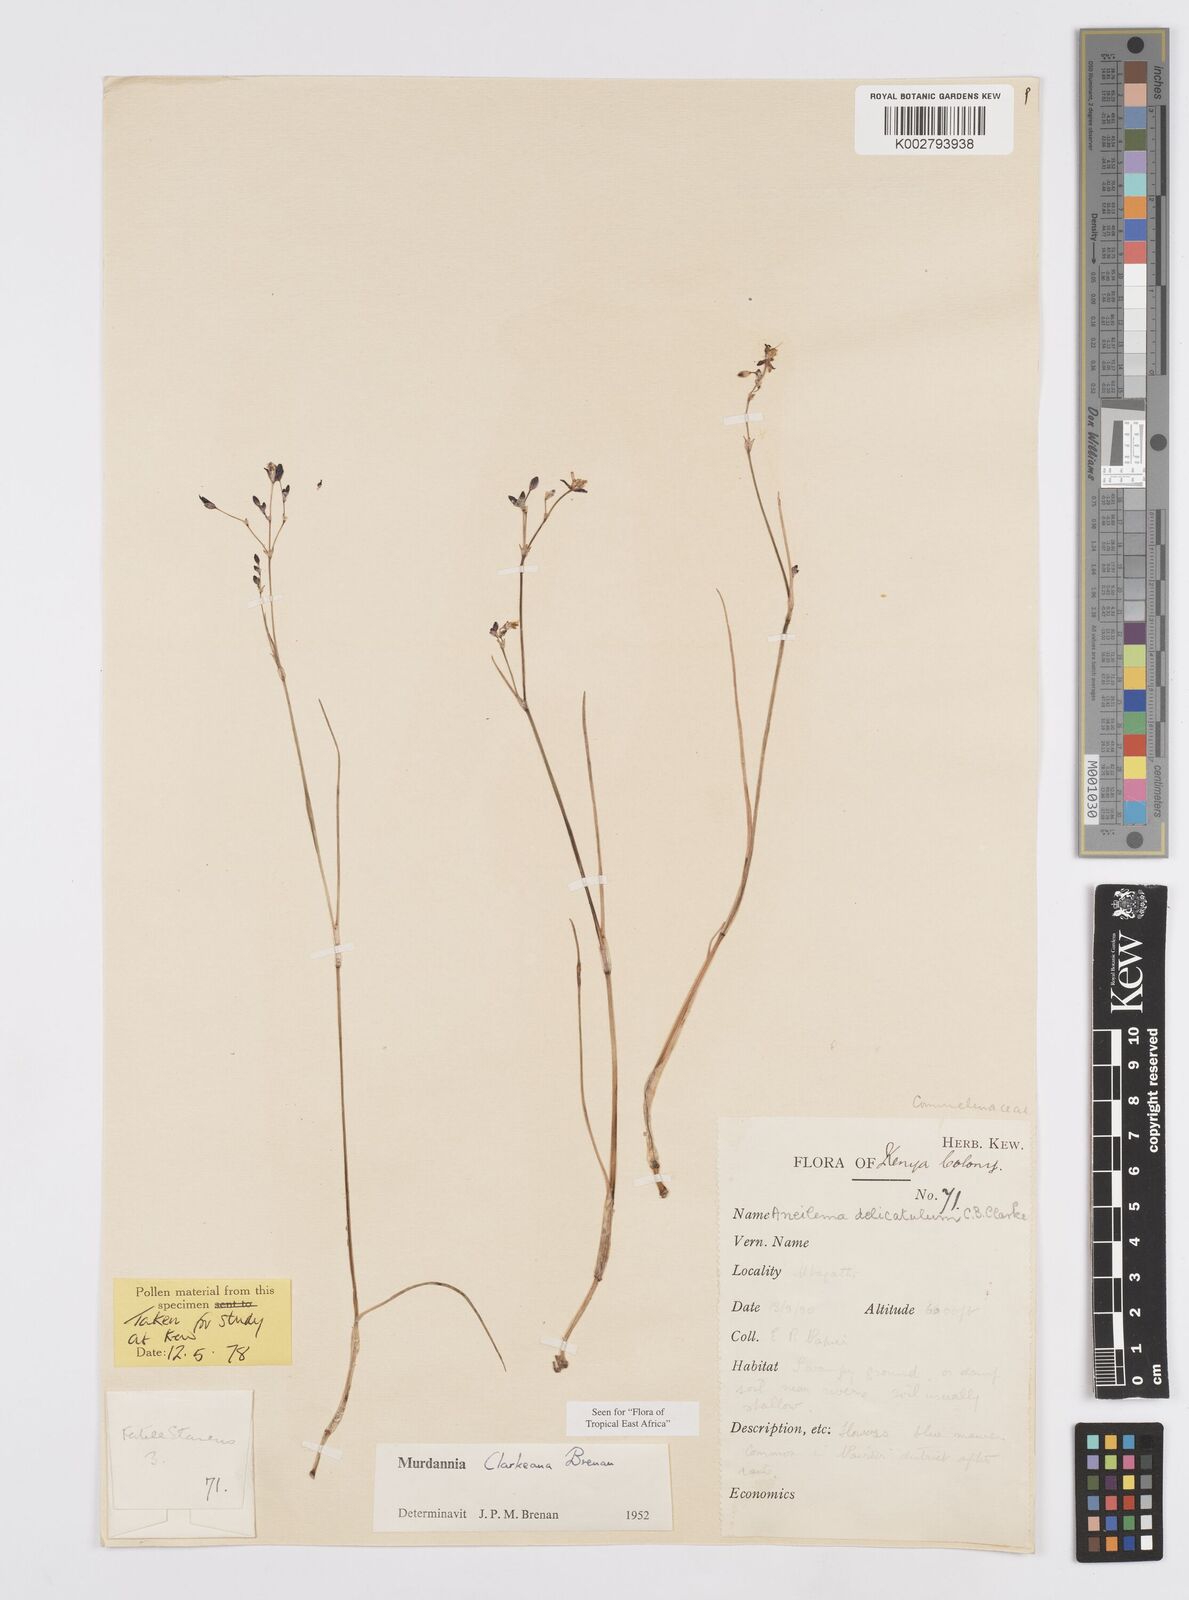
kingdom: Plantae
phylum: Tracheophyta
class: Liliopsida
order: Commelinales
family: Commelinaceae
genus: Murdannia
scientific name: Murdannia clarkeana
